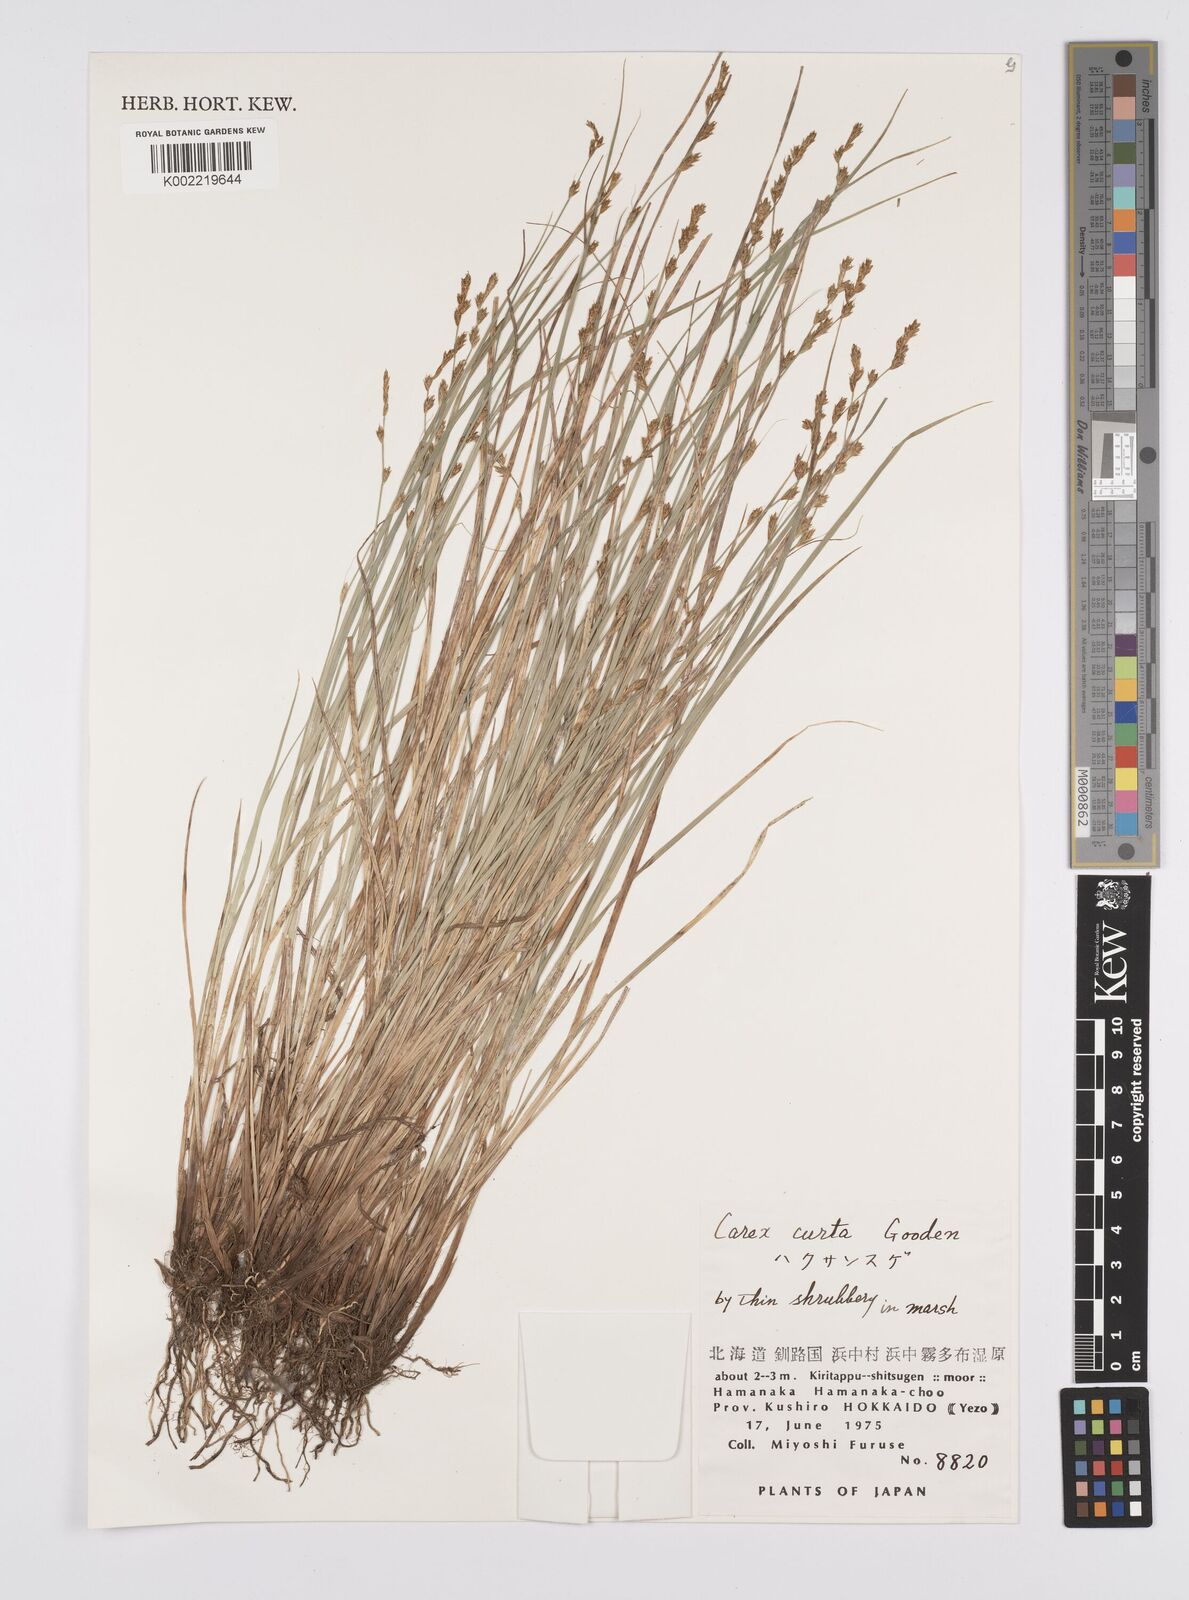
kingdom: Plantae
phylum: Tracheophyta
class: Liliopsida
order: Poales
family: Cyperaceae
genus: Carex
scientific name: Carex canescens
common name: White sedge
